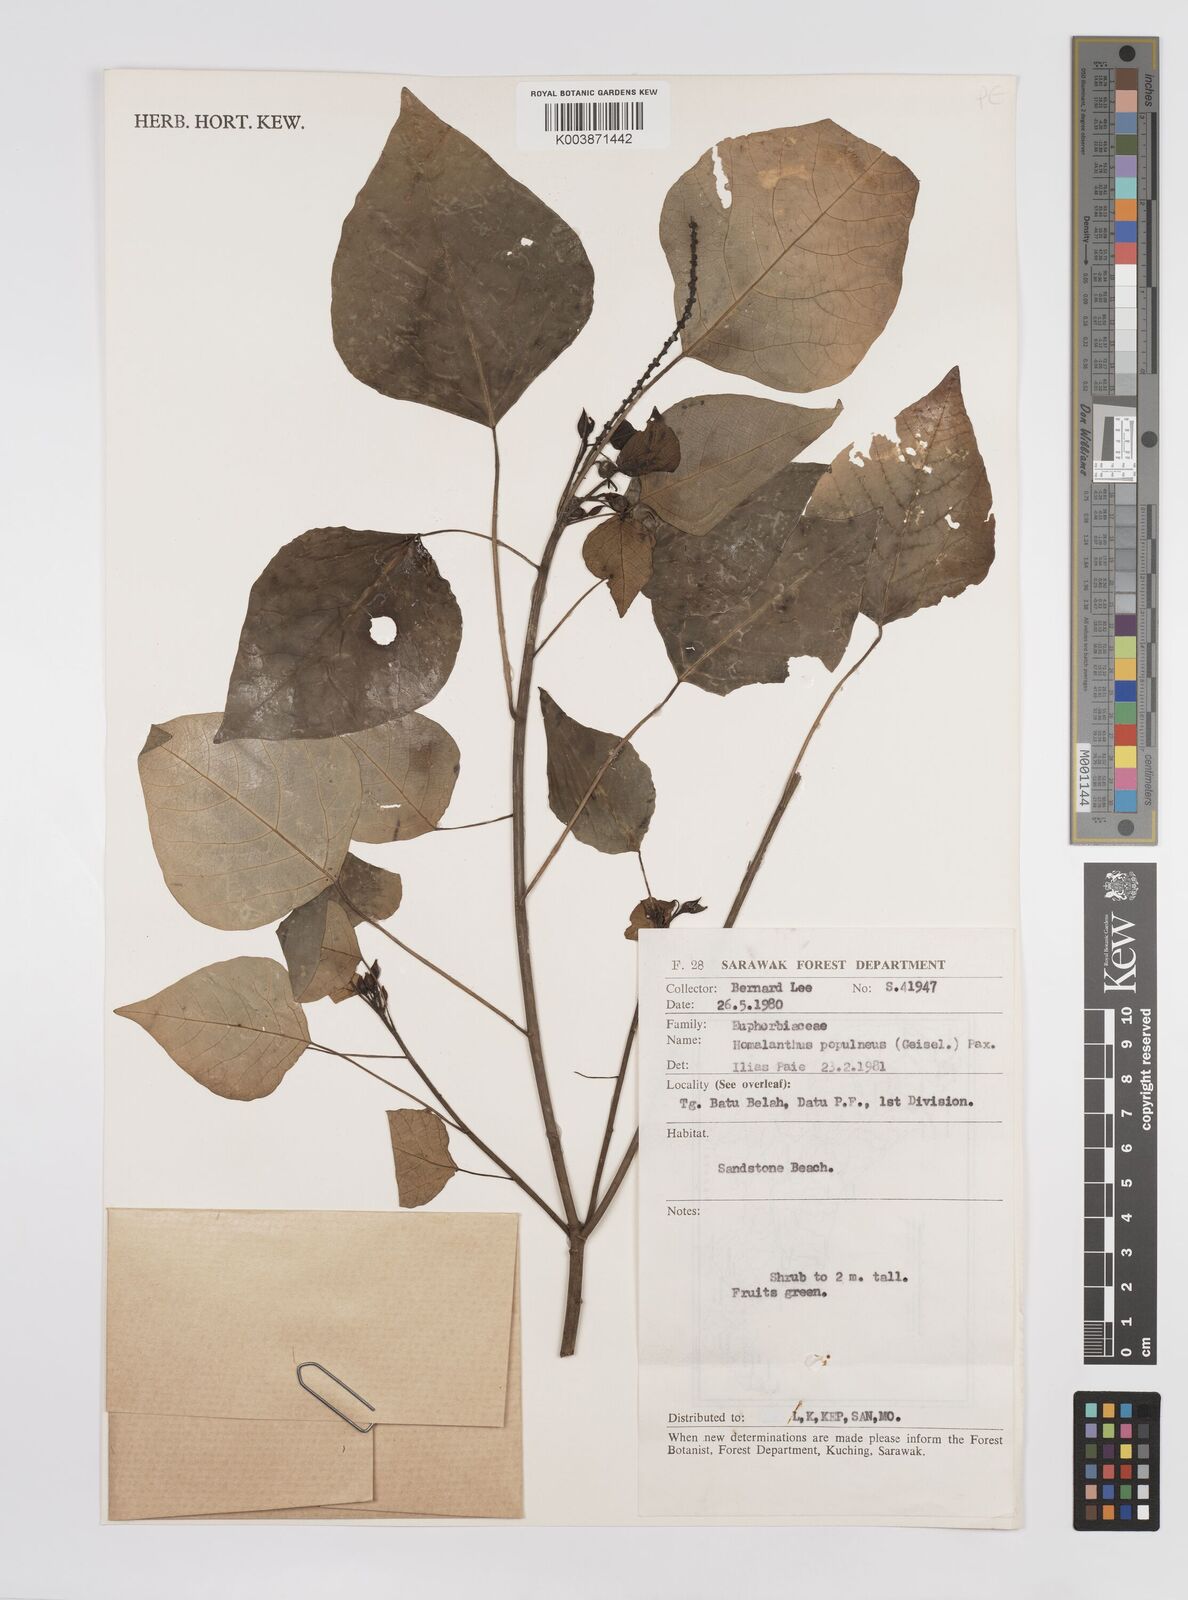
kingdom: Plantae
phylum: Tracheophyta
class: Magnoliopsida
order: Malpighiales
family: Euphorbiaceae
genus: Homalanthus
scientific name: Homalanthus populneus
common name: Spurge
